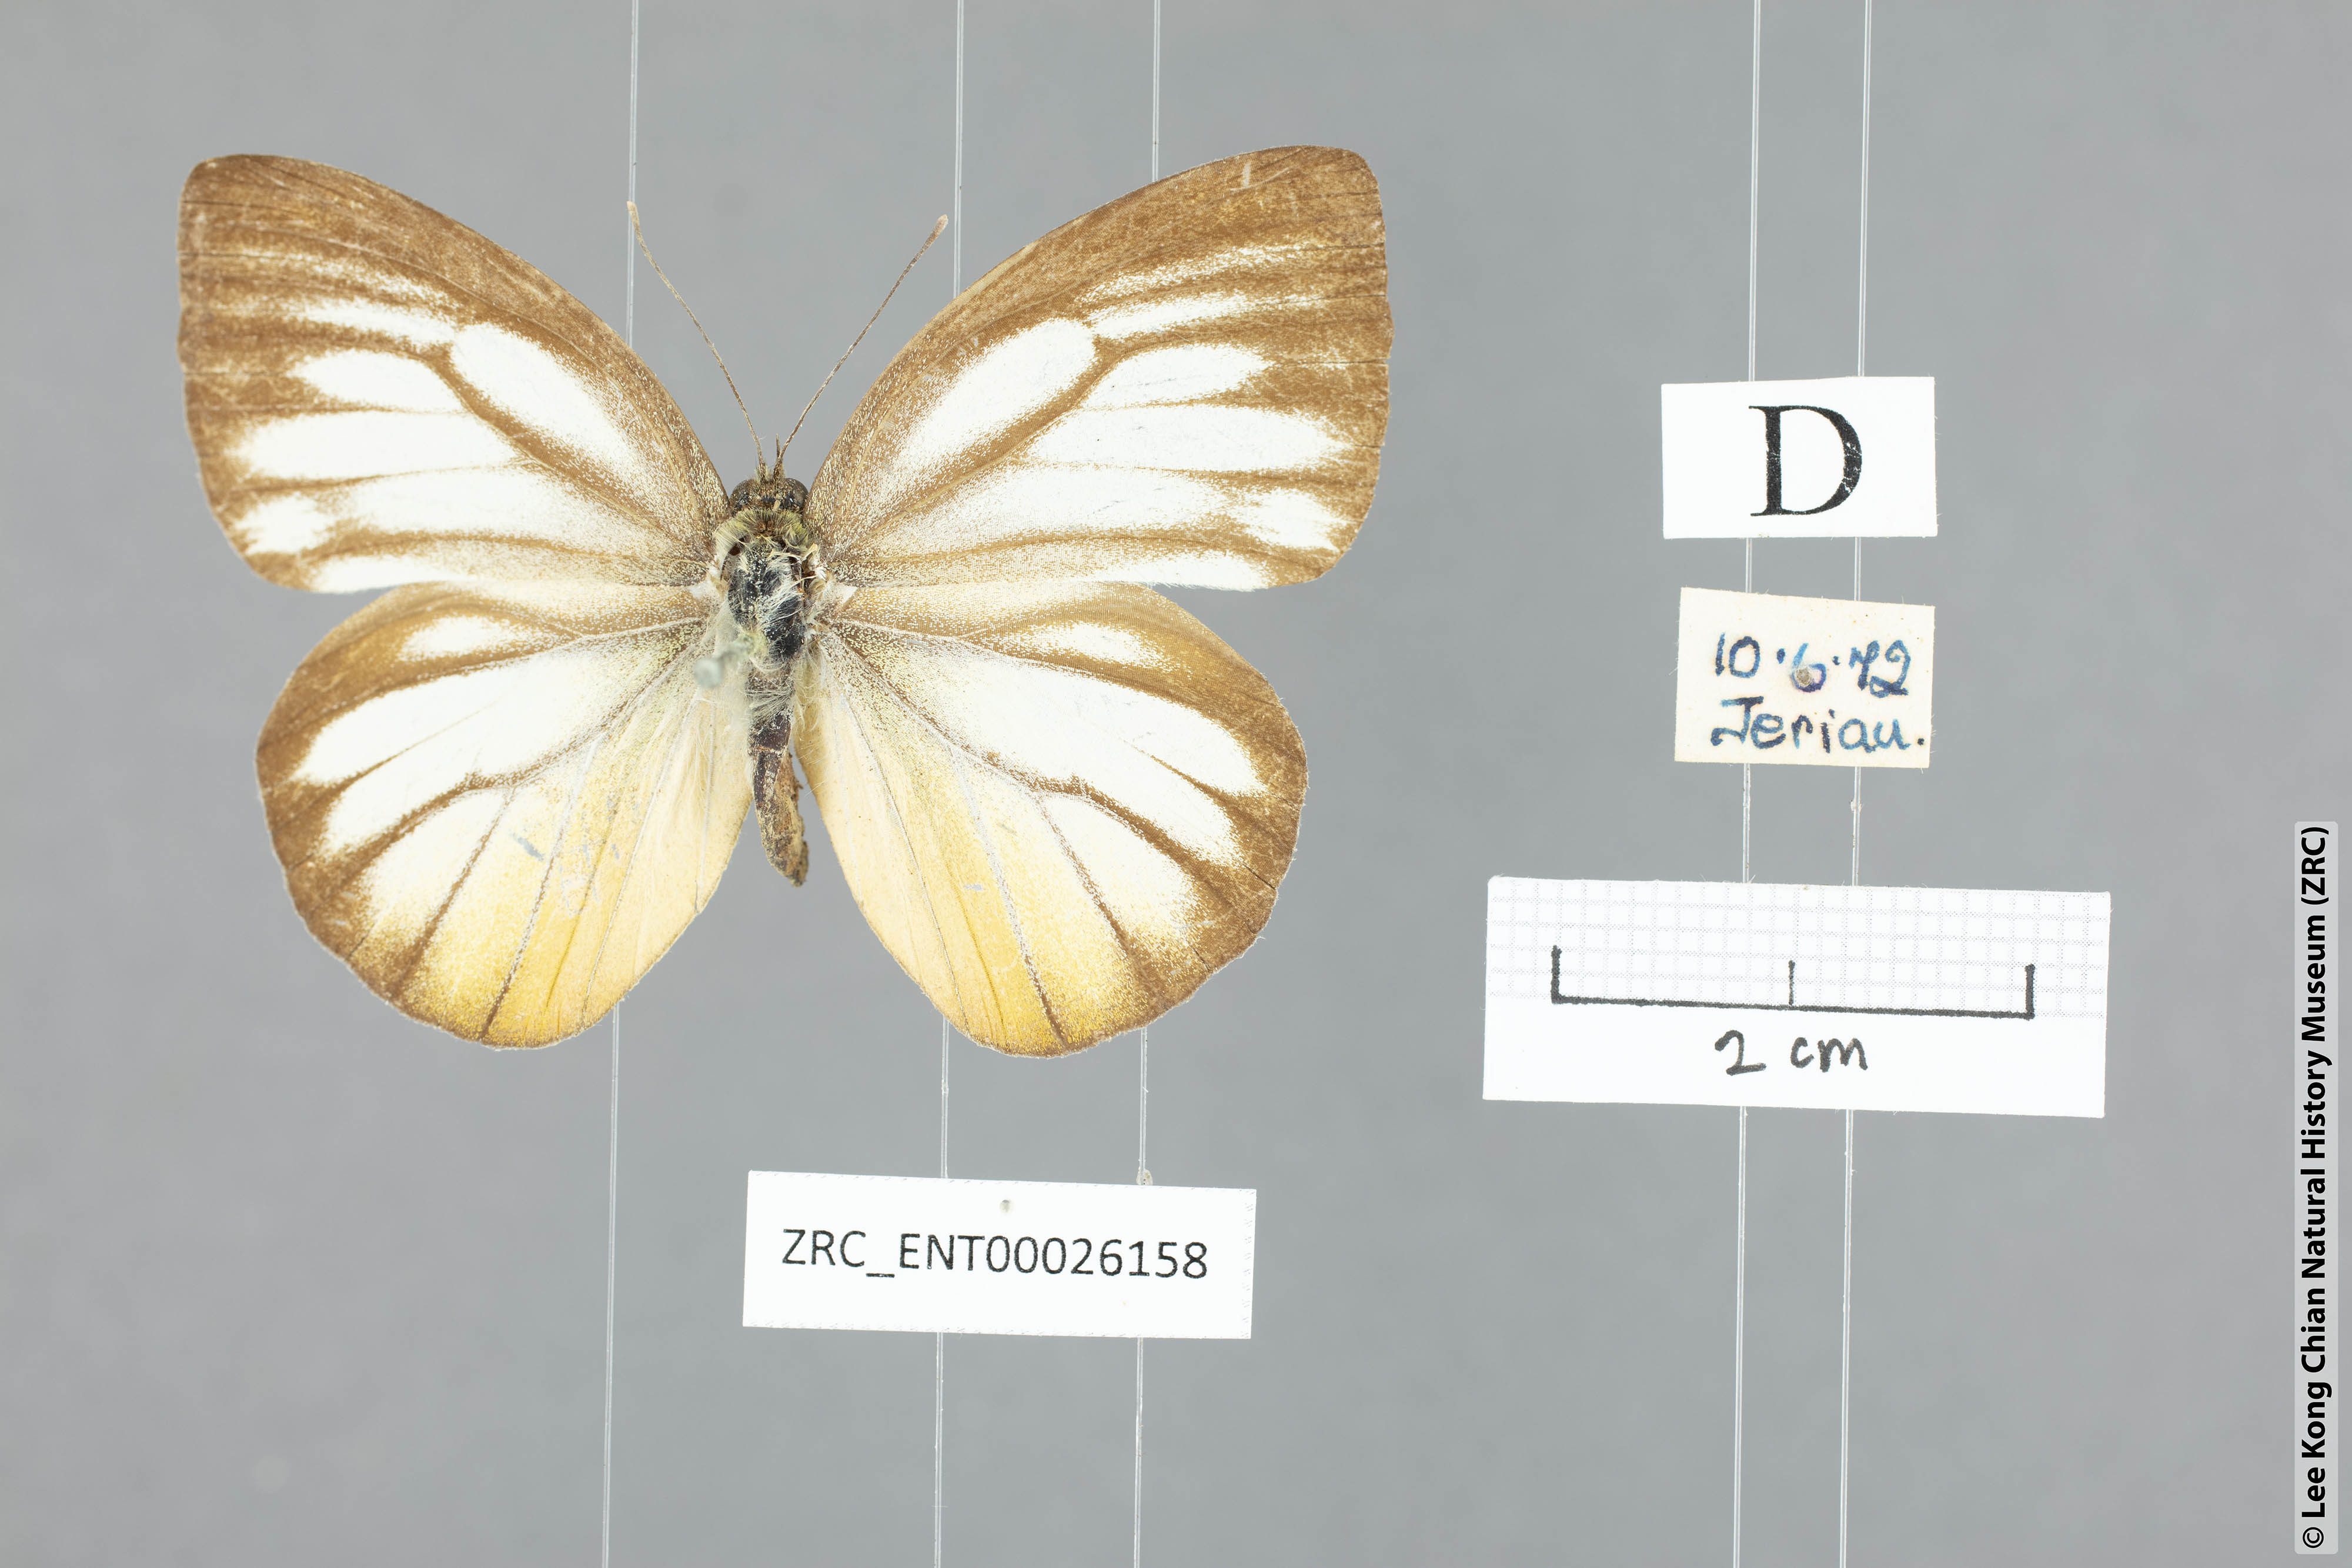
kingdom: Animalia
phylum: Arthropoda
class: Insecta
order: Lepidoptera
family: Pieridae
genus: Cepora
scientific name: Cepora nadina
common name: Lesser gull
